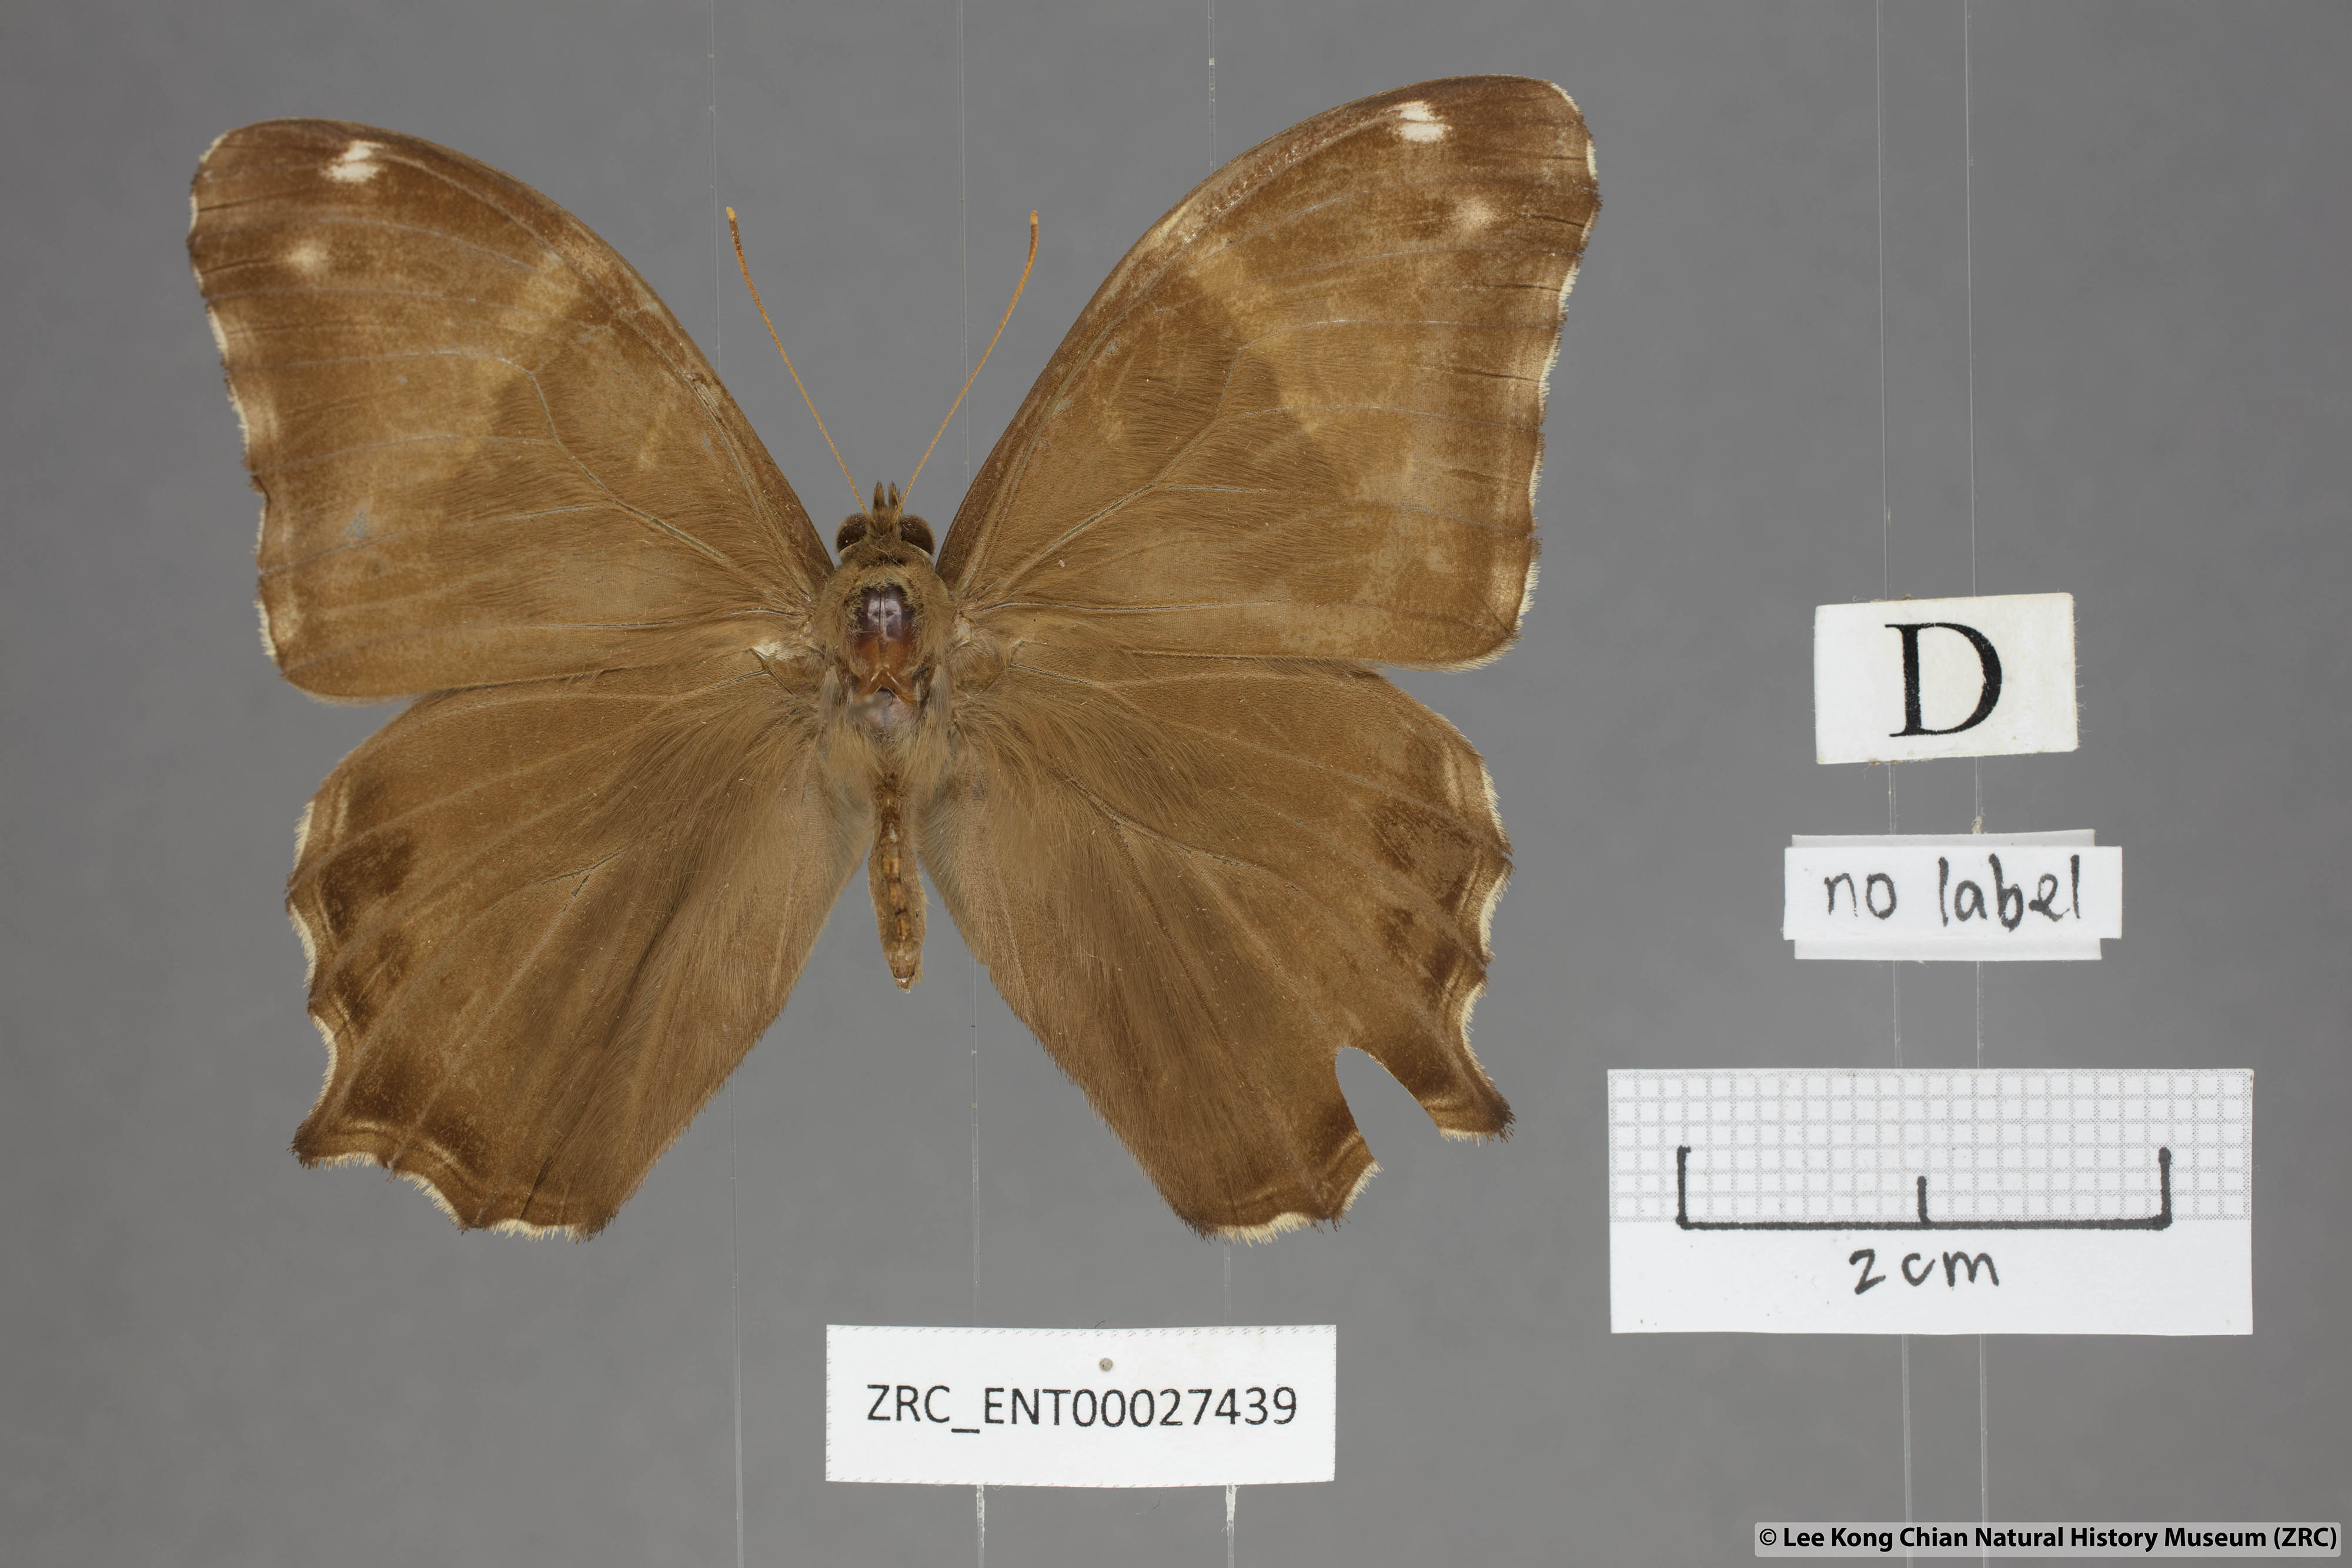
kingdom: Animalia
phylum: Arthropoda
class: Insecta
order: Lepidoptera
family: Nymphalidae
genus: Lethe
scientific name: Lethe europa
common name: Bamboo treebrown
